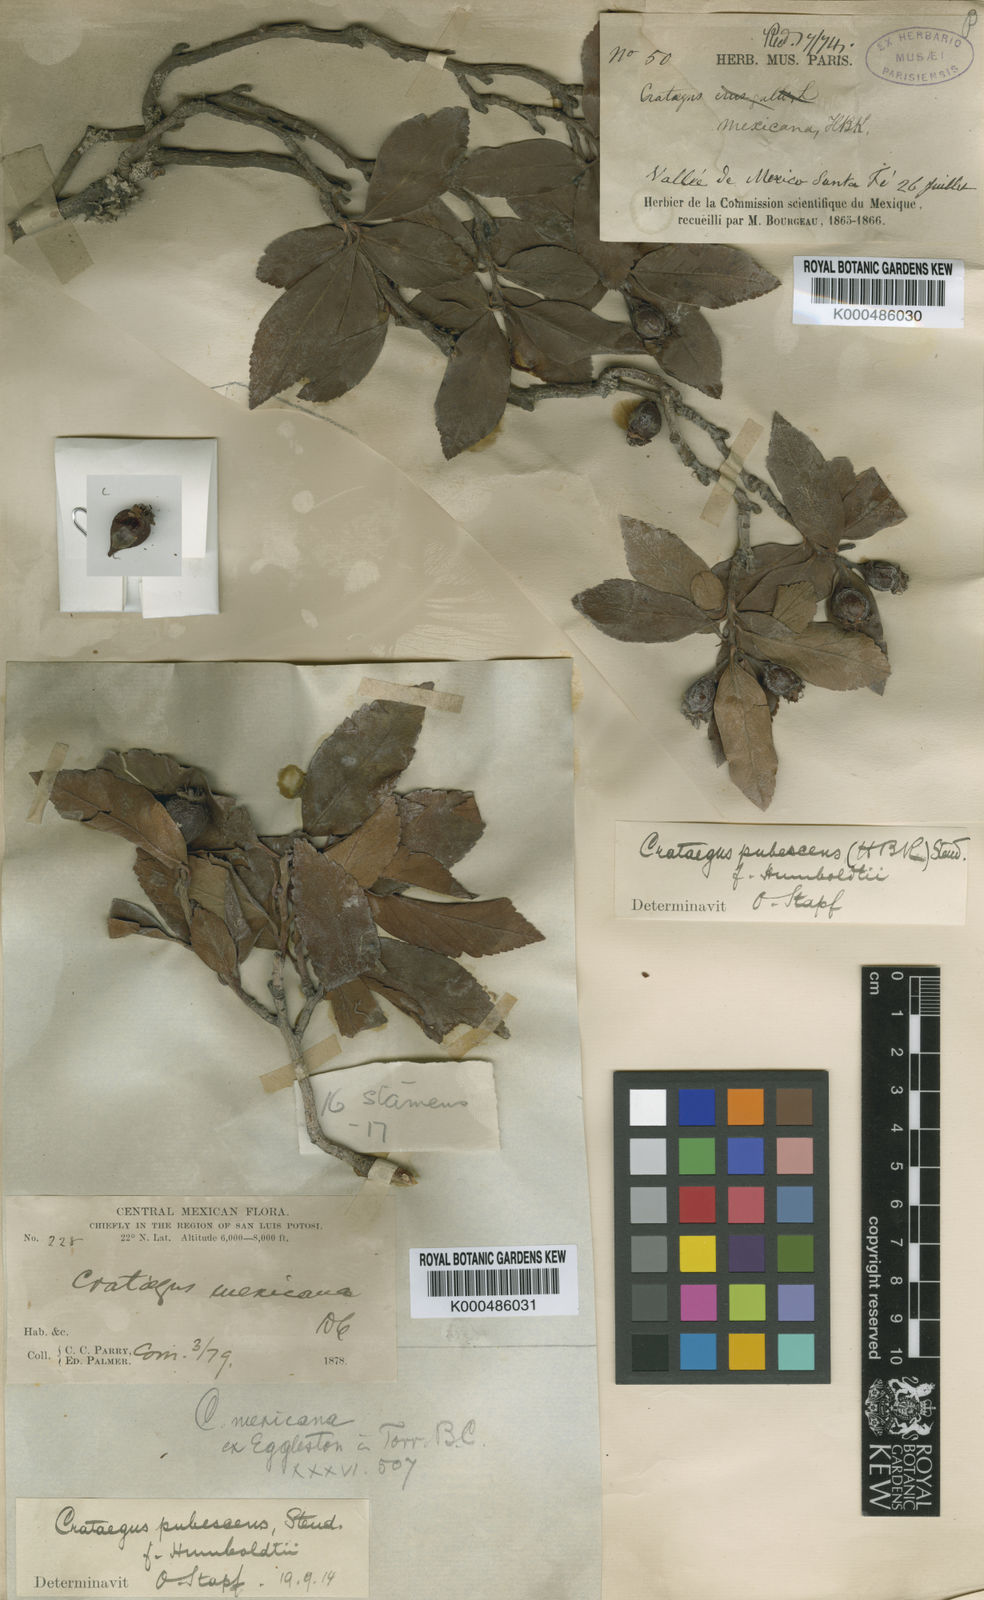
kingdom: Plantae
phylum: Tracheophyta
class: Magnoliopsida
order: Rosales
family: Rosaceae
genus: Crataegus
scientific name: Crataegus gracilior
